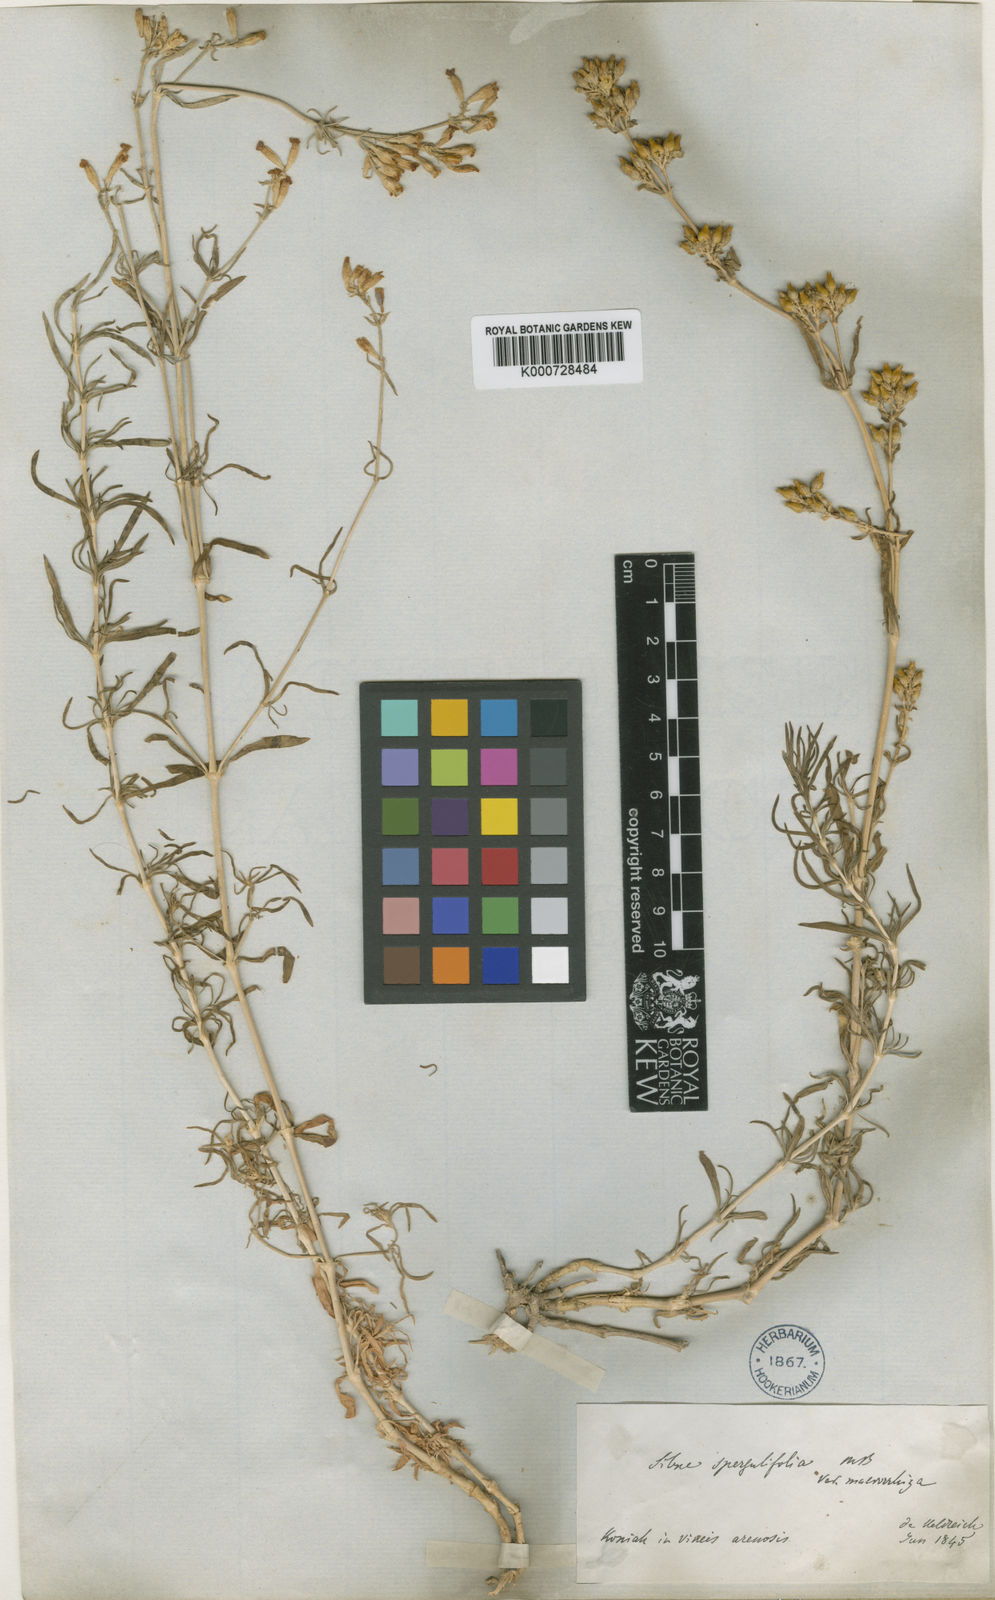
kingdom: Plantae
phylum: Tracheophyta
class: Magnoliopsida
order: Caryophyllales
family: Caryophyllaceae
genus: Silene
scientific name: Silene cappadocica
